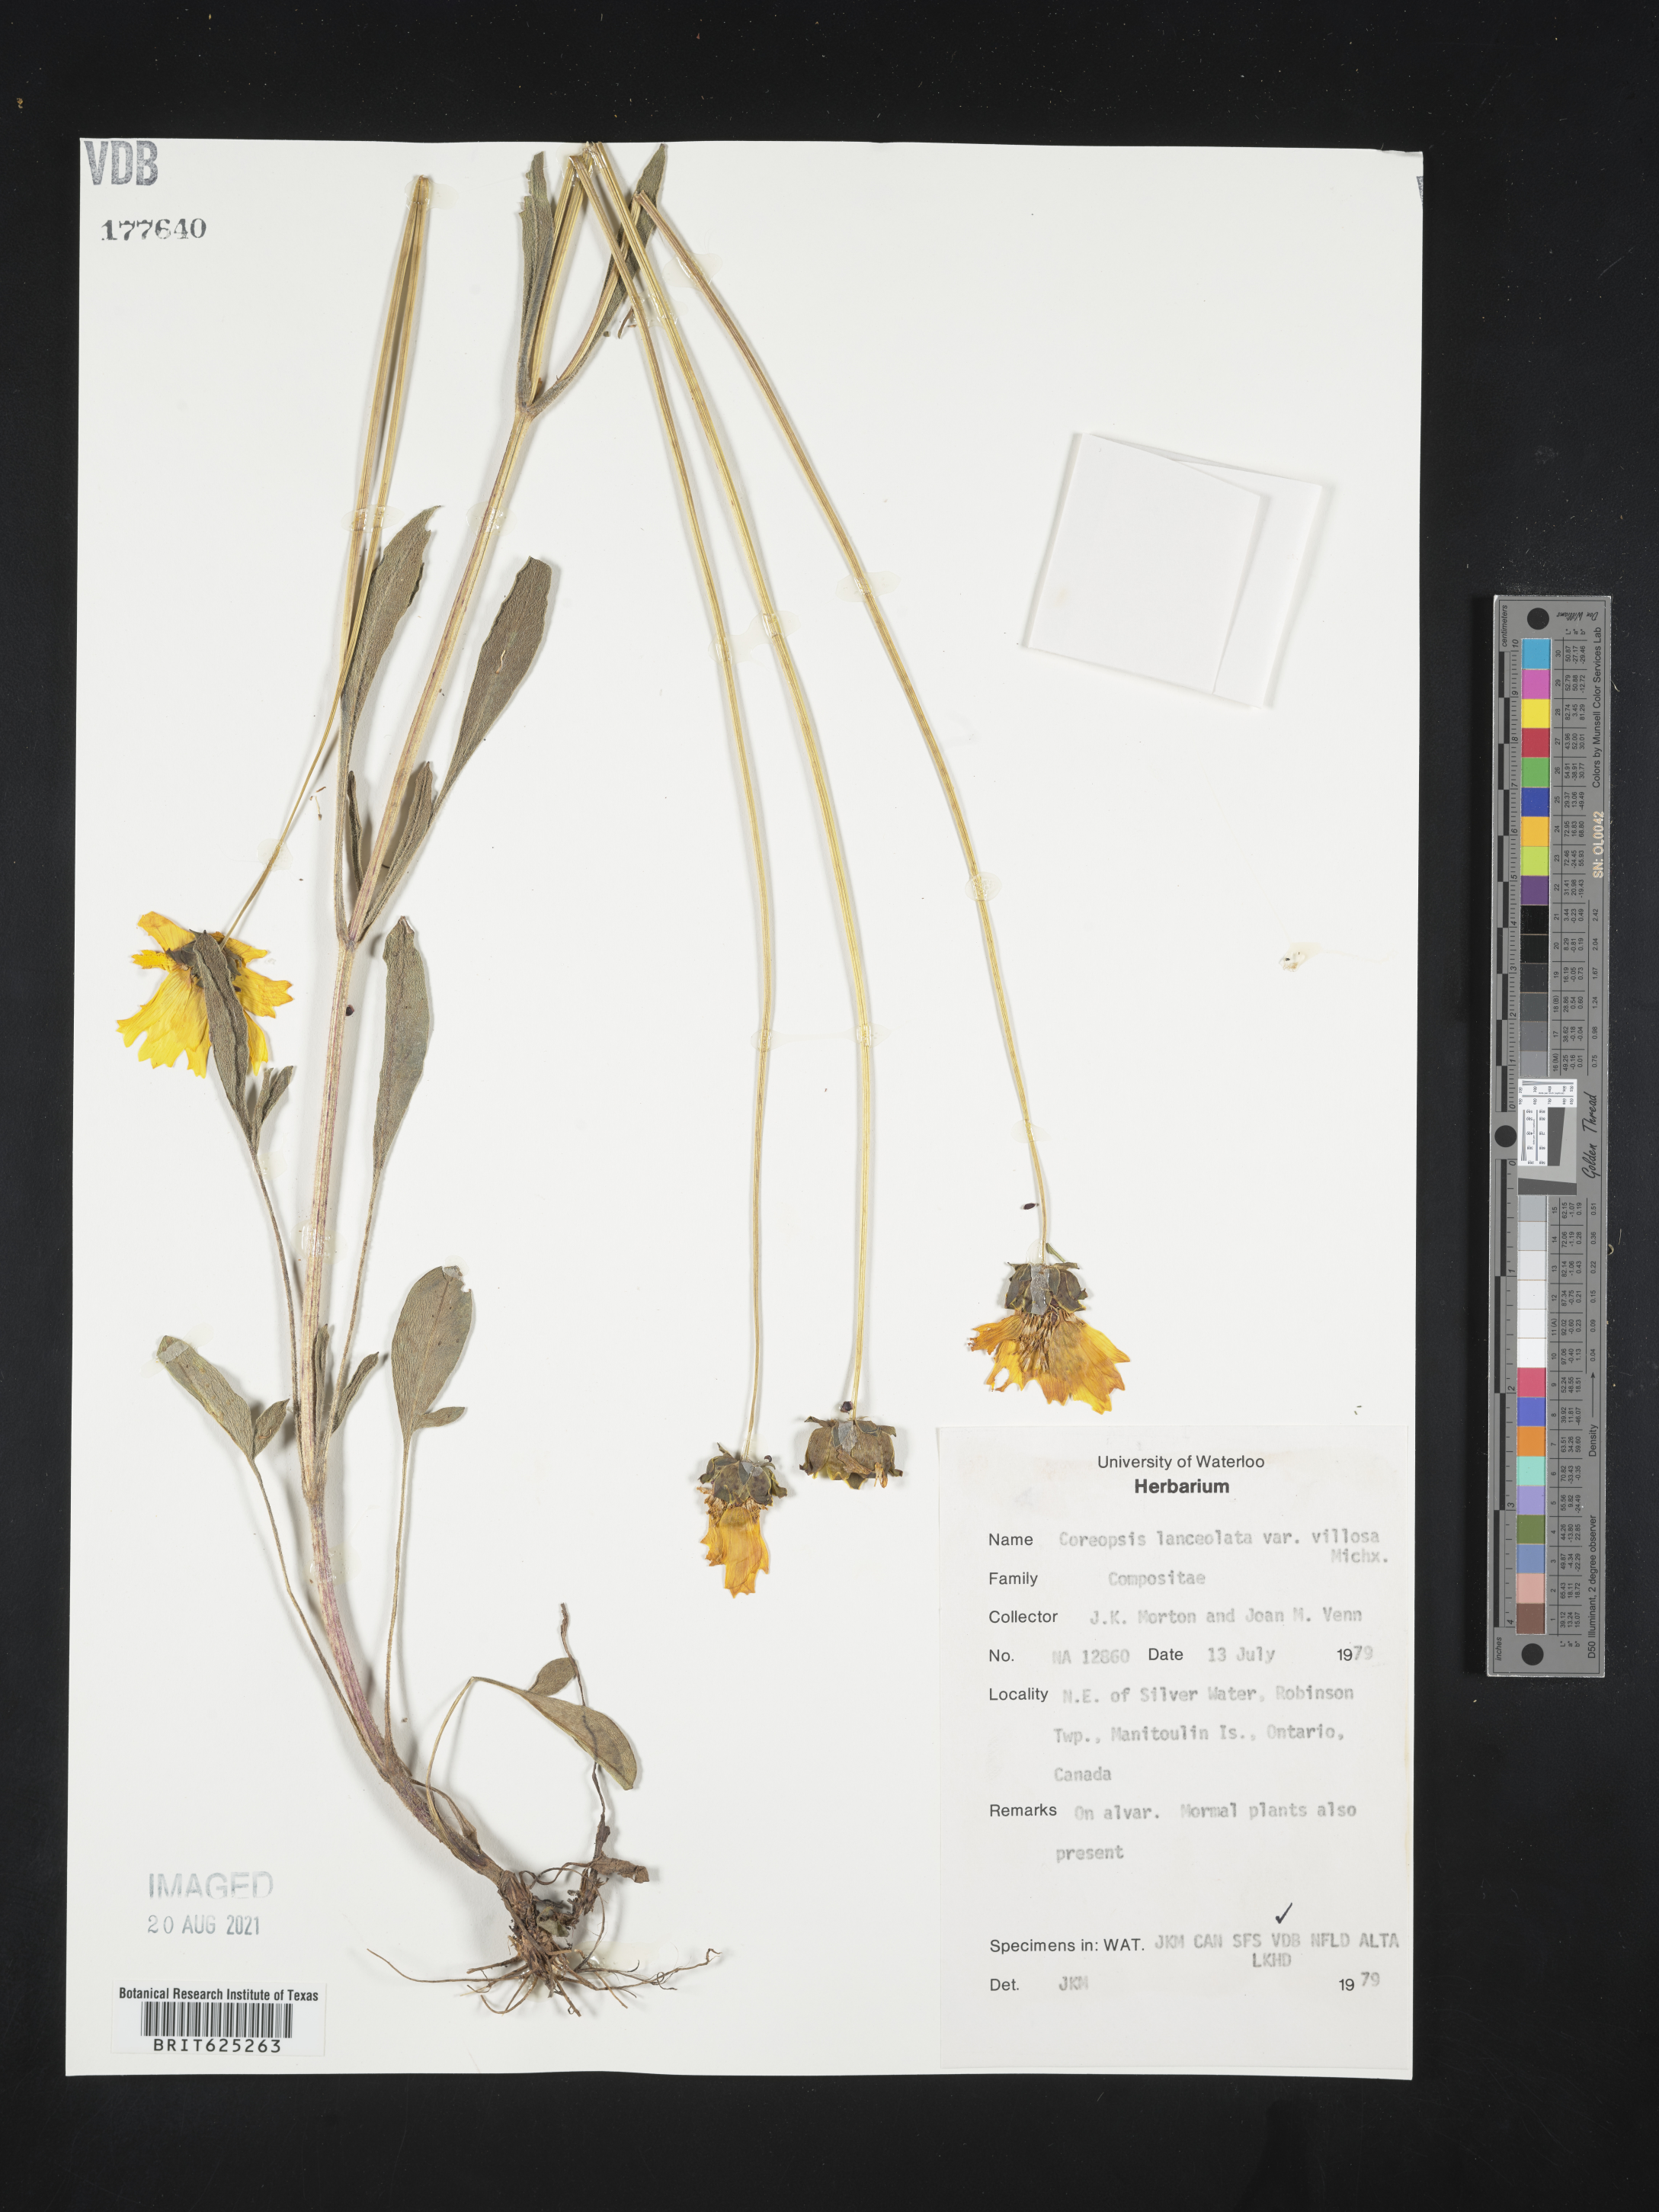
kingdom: Plantae
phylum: Tracheophyta
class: Magnoliopsida
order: Asterales
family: Asteraceae
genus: Coreopsis
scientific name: Coreopsis lanceolata
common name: Garden coreopsis
